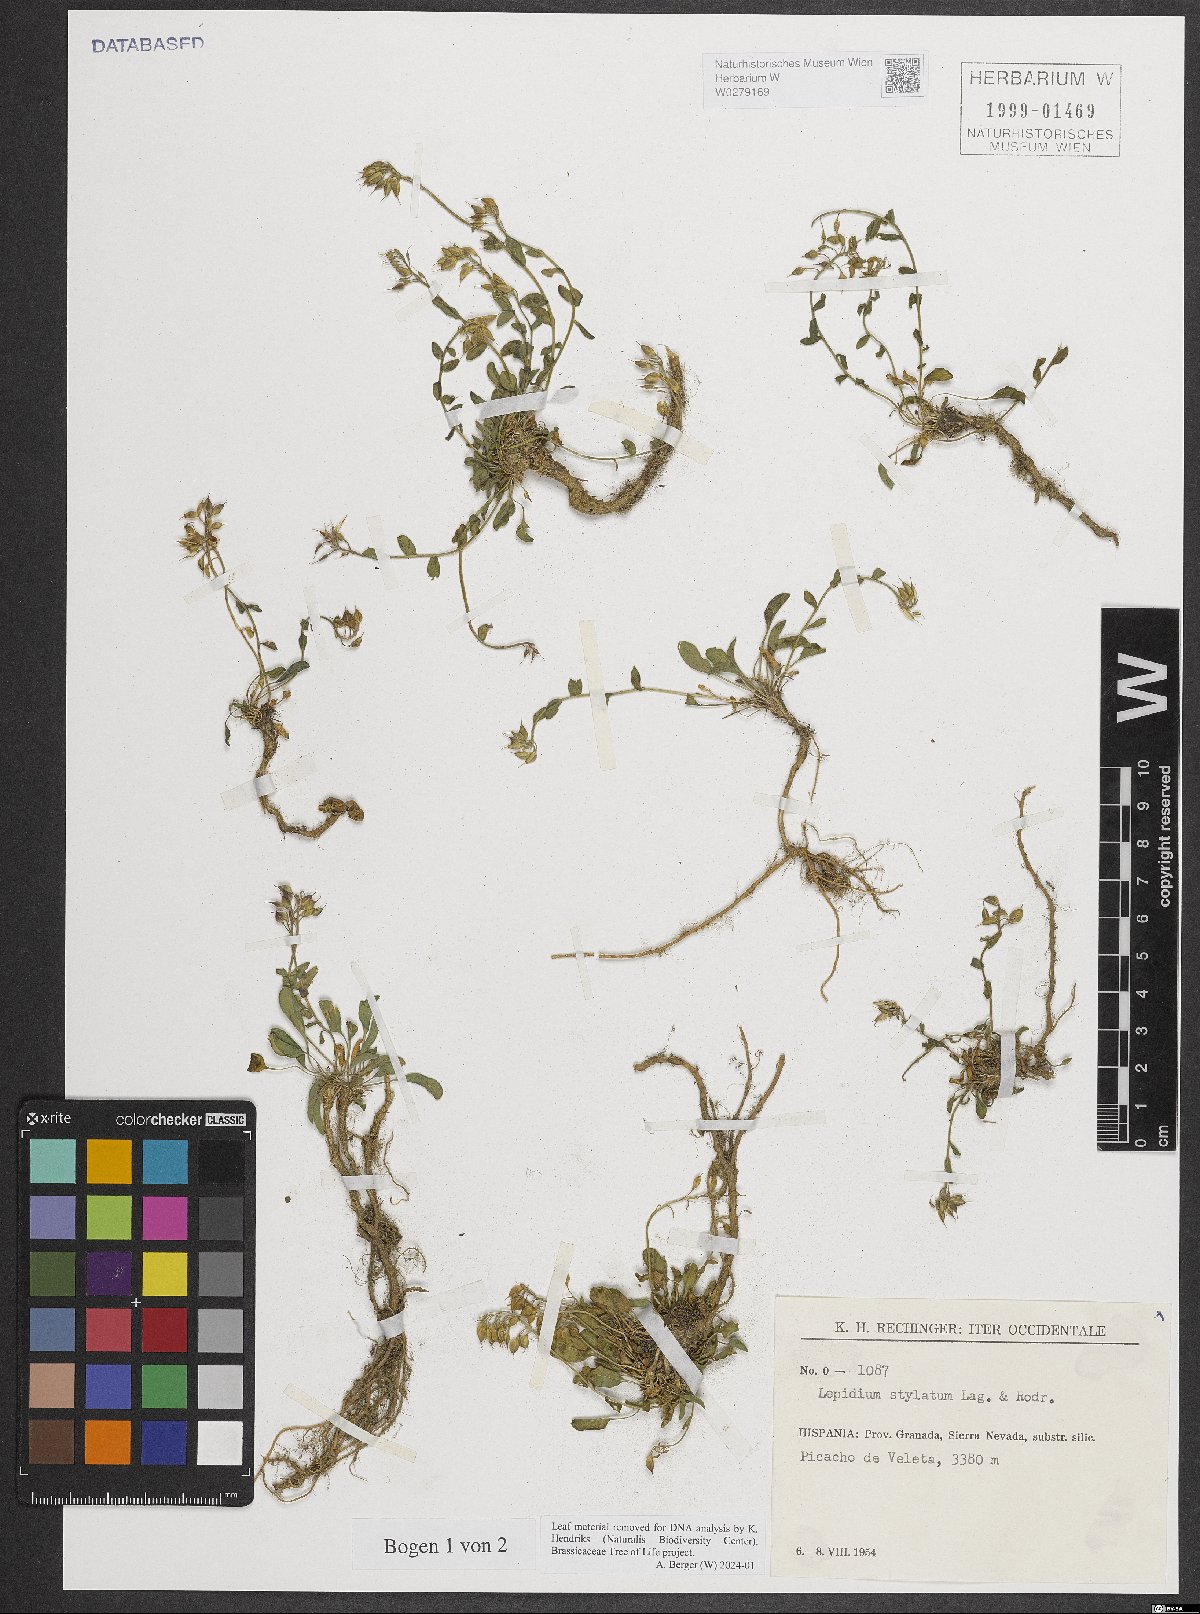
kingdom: Plantae
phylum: Tracheophyta
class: Magnoliopsida
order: Brassicales
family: Brassicaceae
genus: Lepidium
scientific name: Lepidium hirtum
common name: Mediterranean pepperweed
